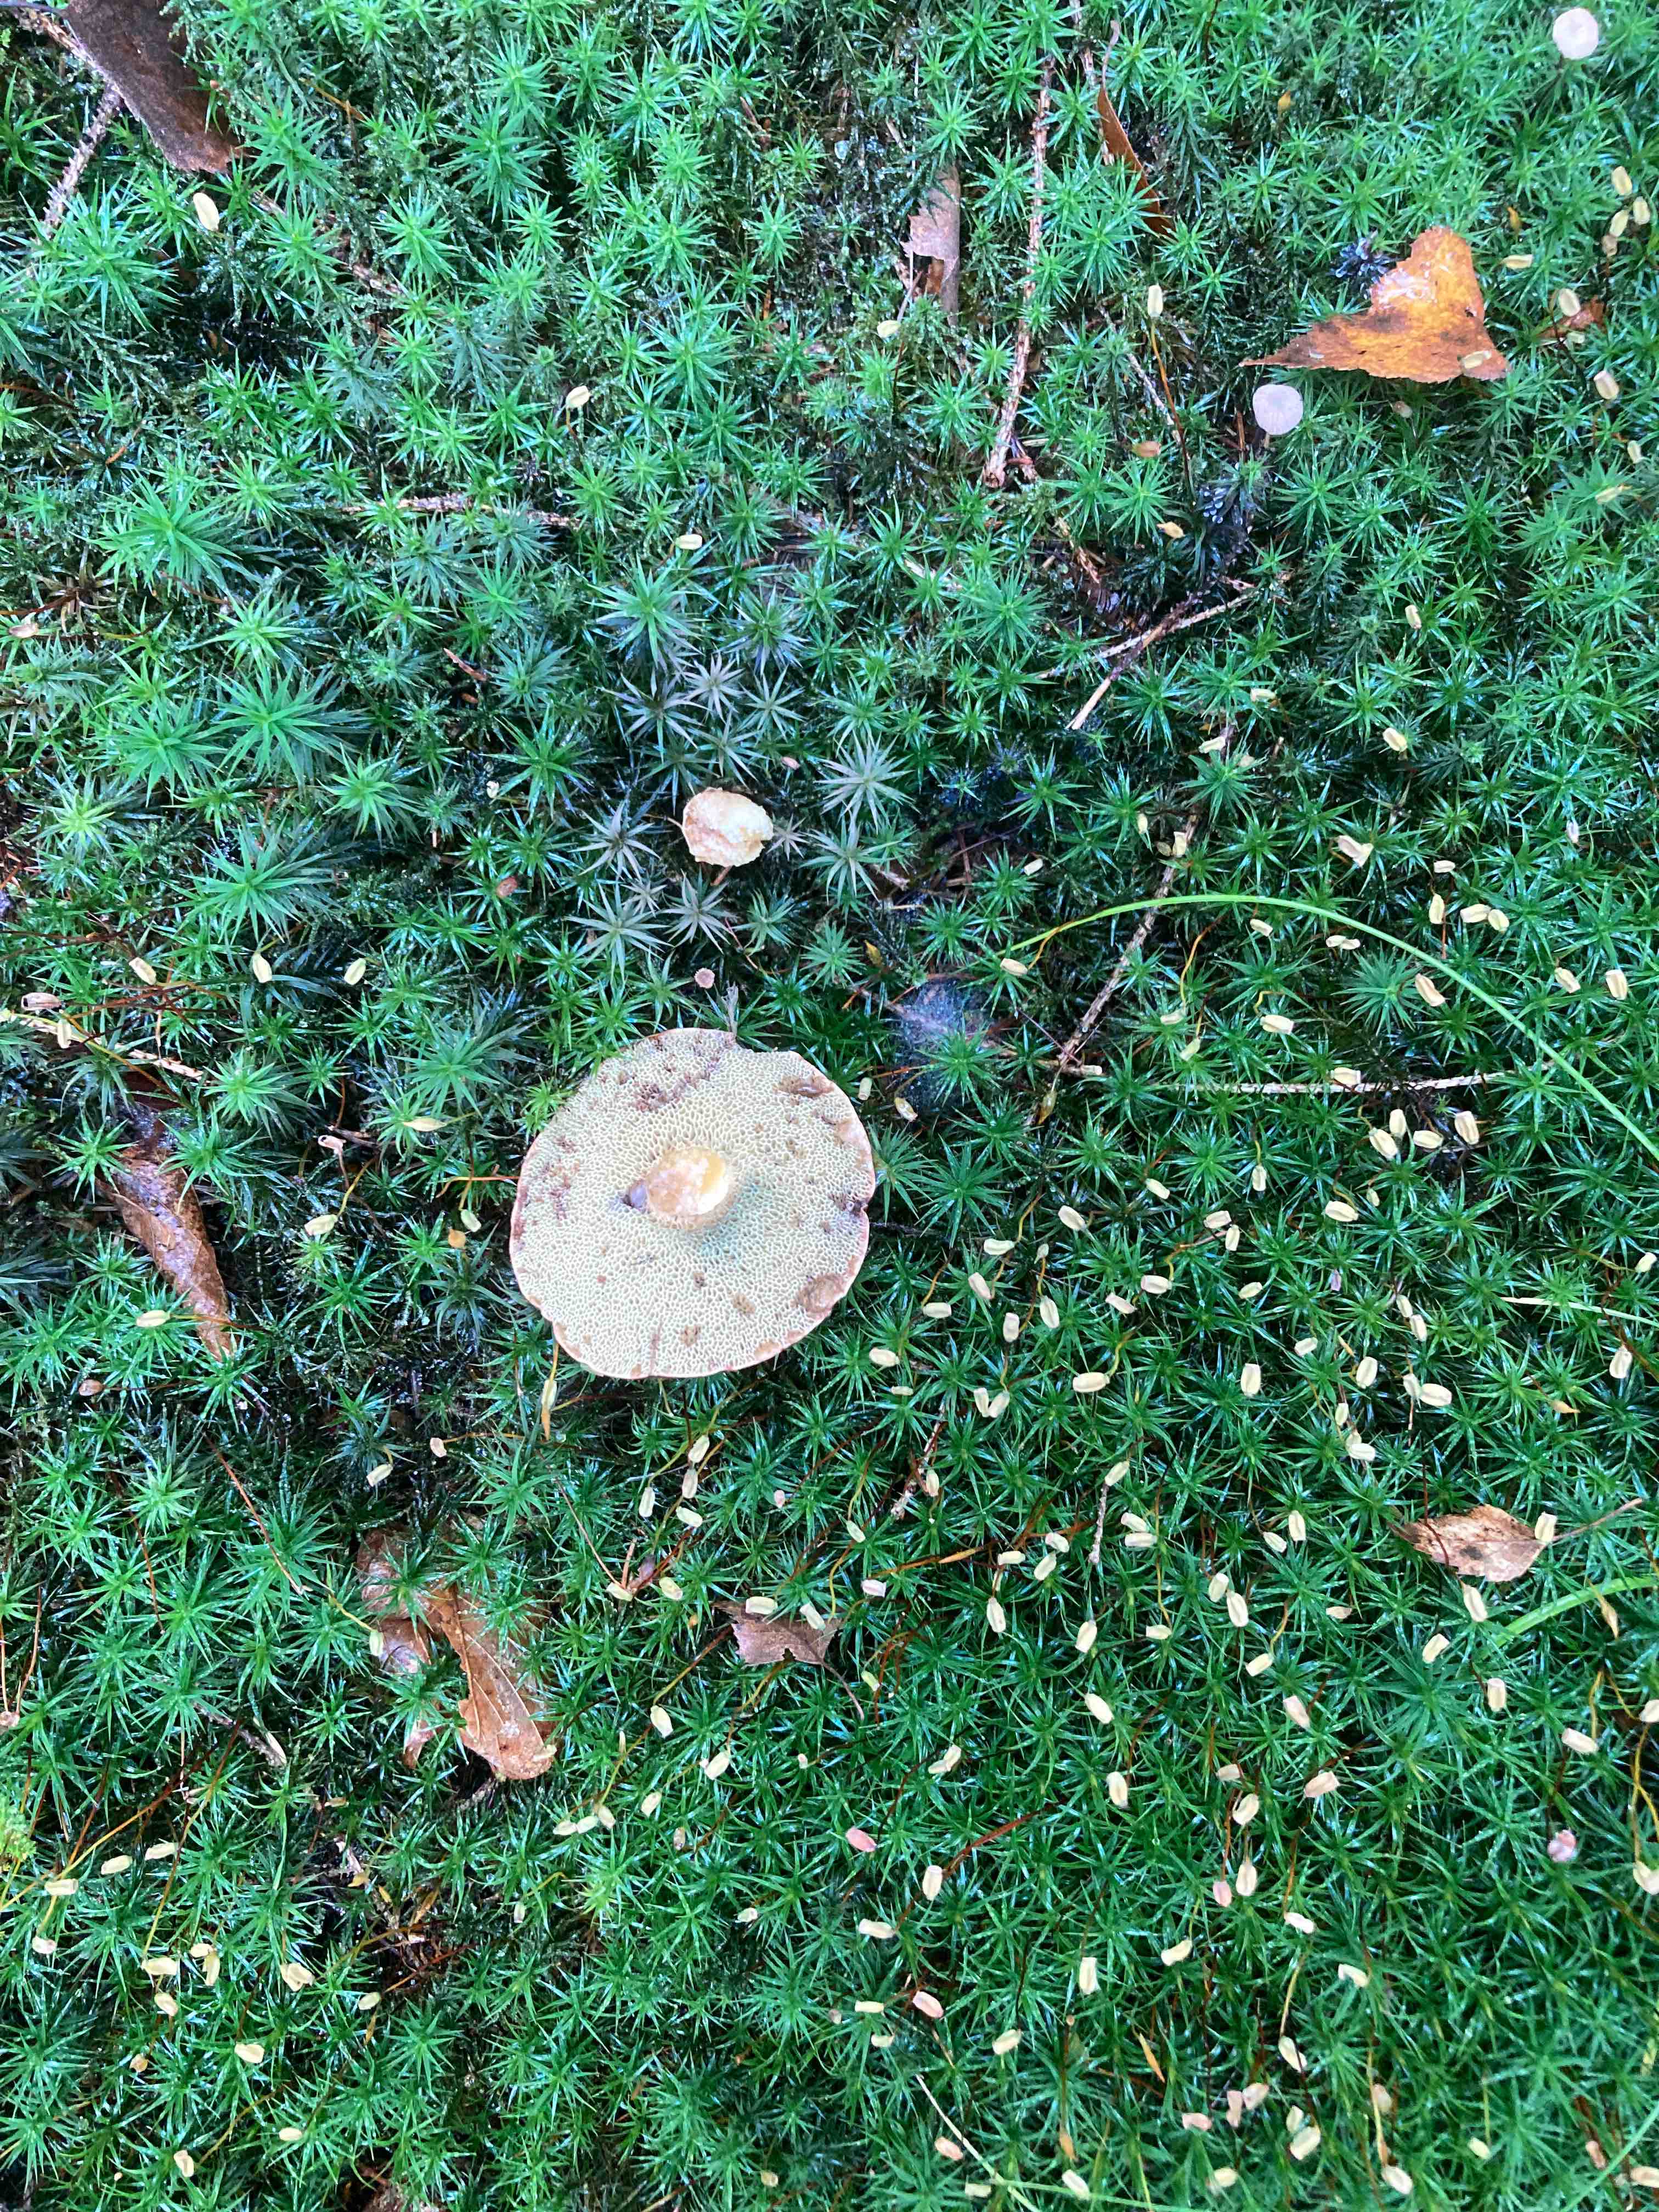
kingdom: Fungi
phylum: Basidiomycota
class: Agaricomycetes
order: Boletales
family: Boletaceae
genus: Imleria
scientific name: Imleria badia
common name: brunstokket rørhat
